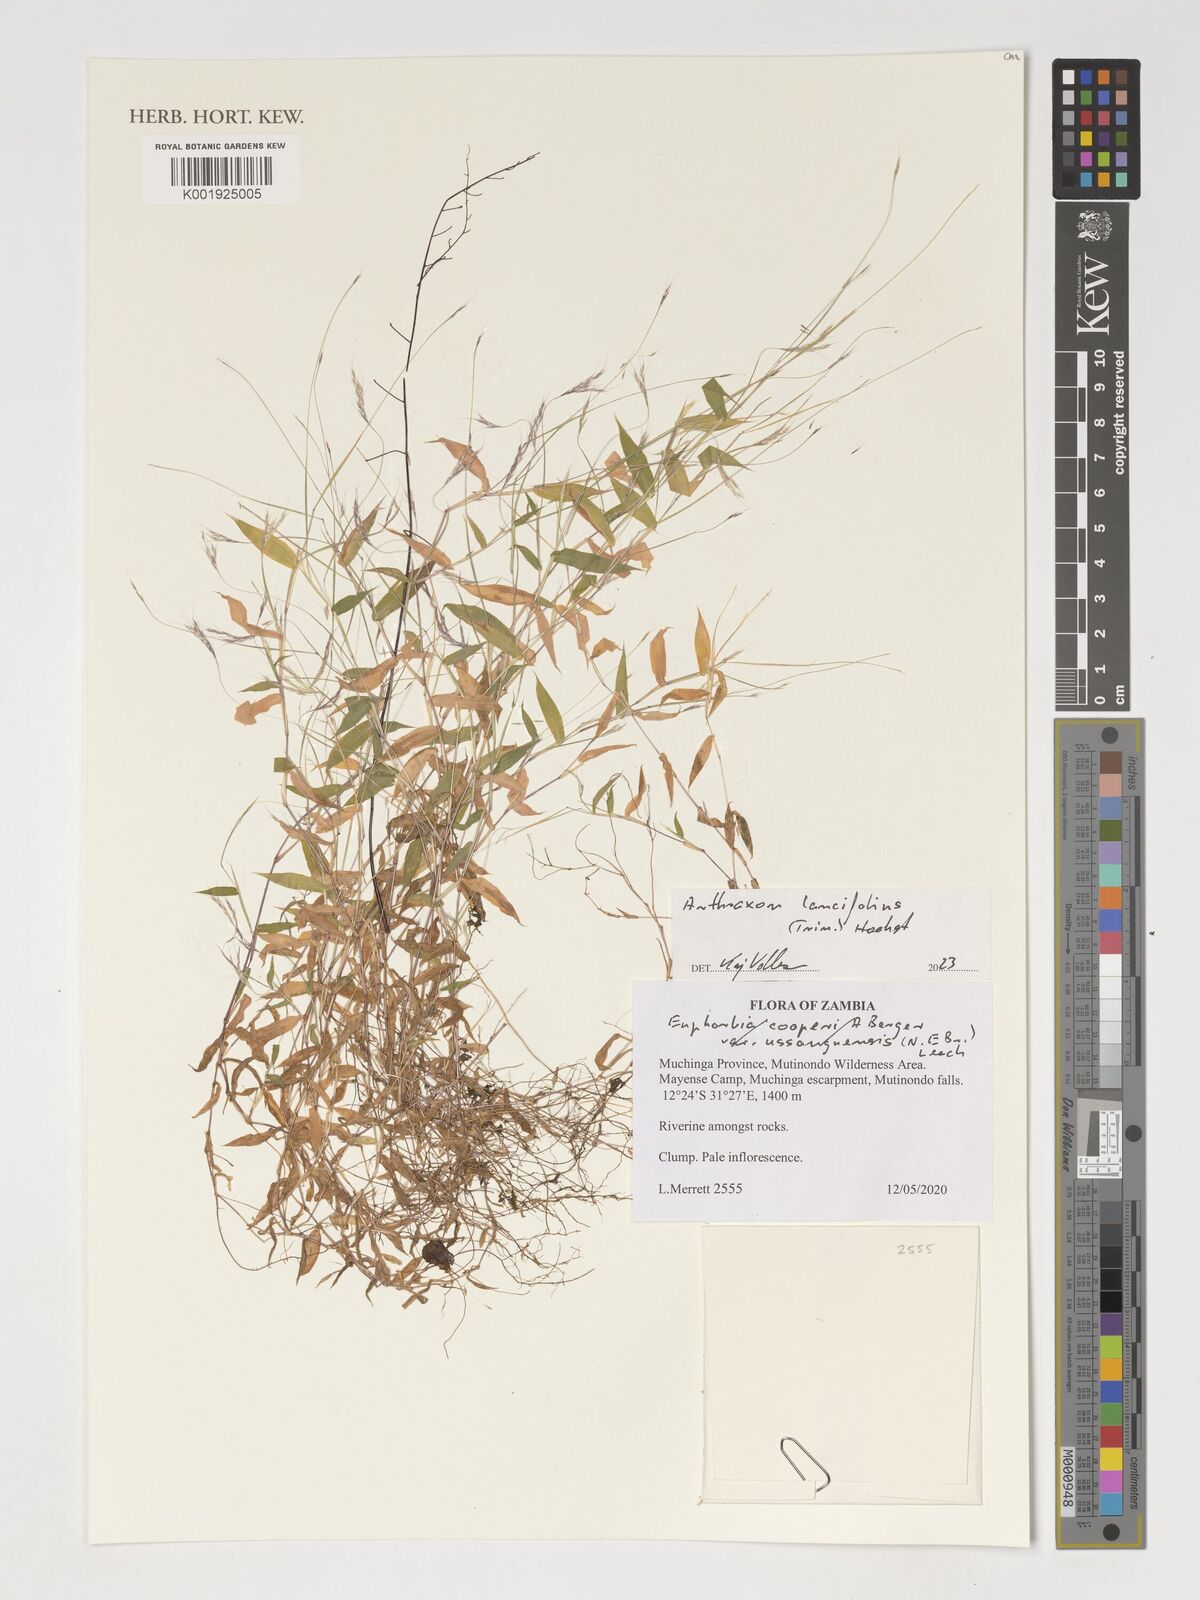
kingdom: Plantae
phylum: Tracheophyta
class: Liliopsida
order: Poales
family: Poaceae
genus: Arthraxon
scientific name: Arthraxon lancifolius
